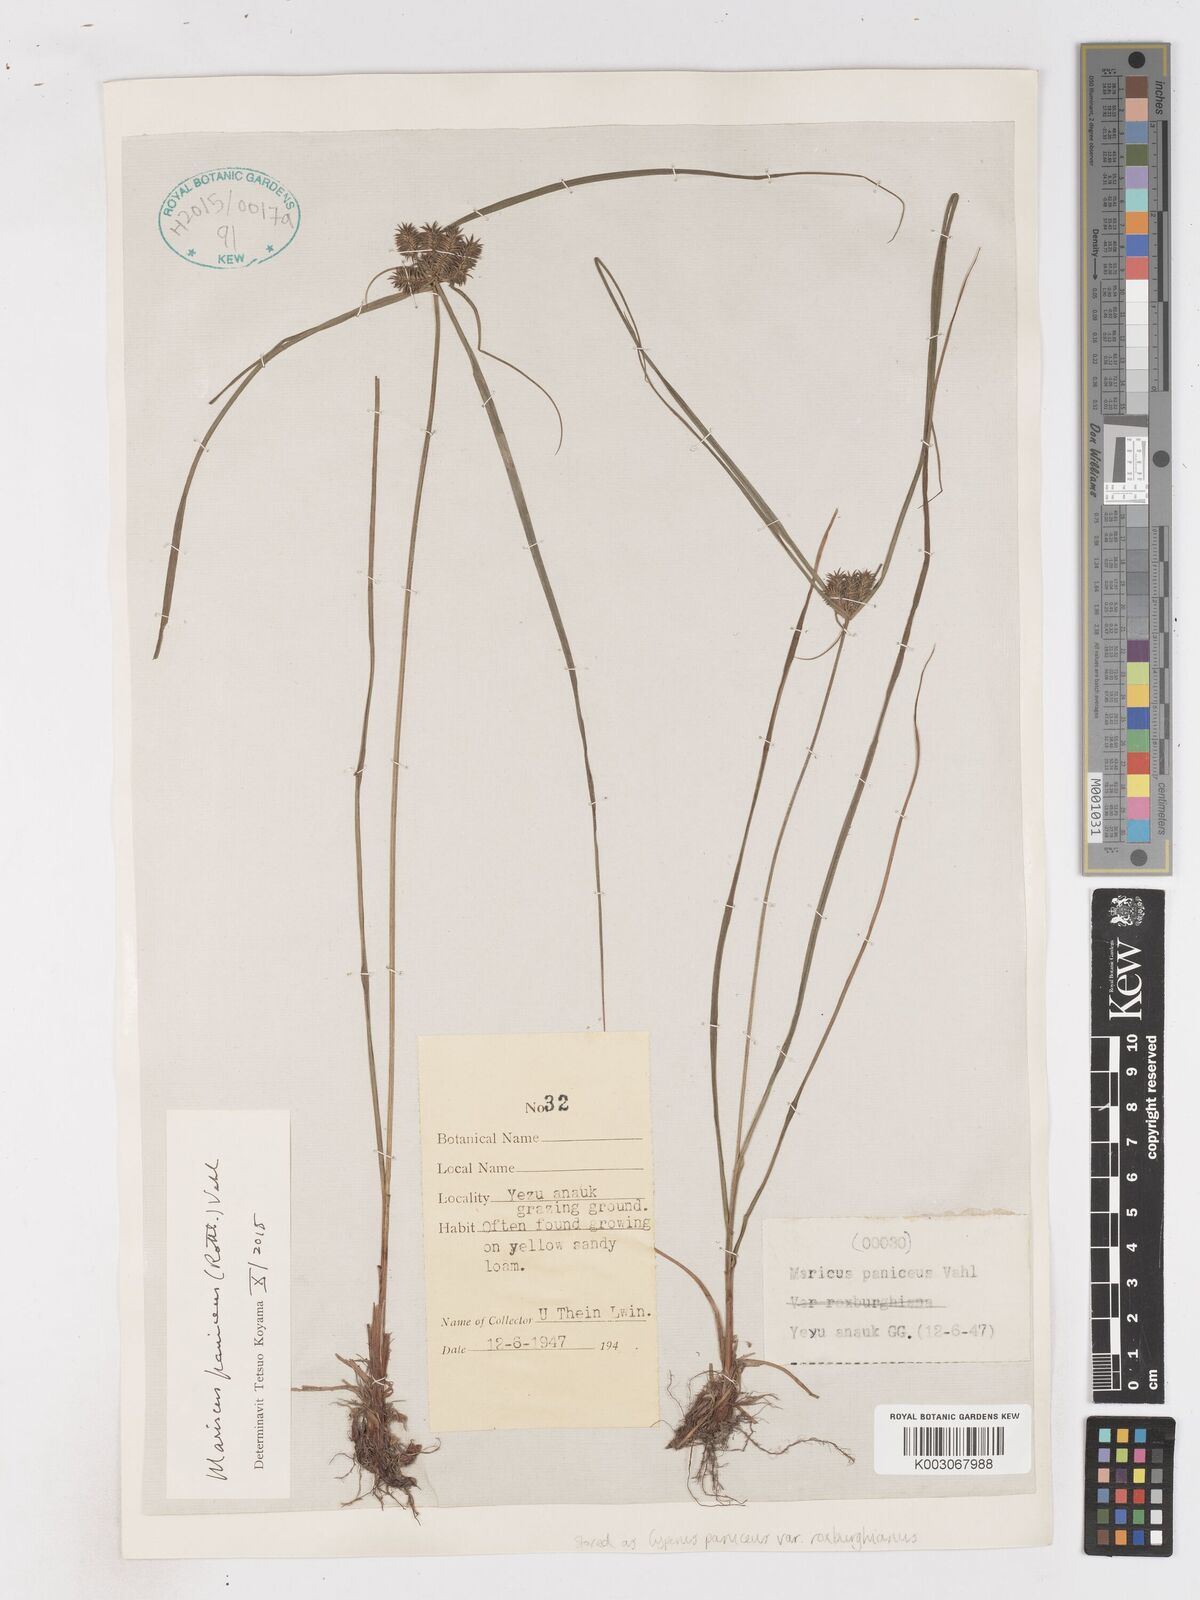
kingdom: Plantae
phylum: Tracheophyta
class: Liliopsida
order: Poales
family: Cyperaceae
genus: Cyperus
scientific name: Cyperus paniceus
